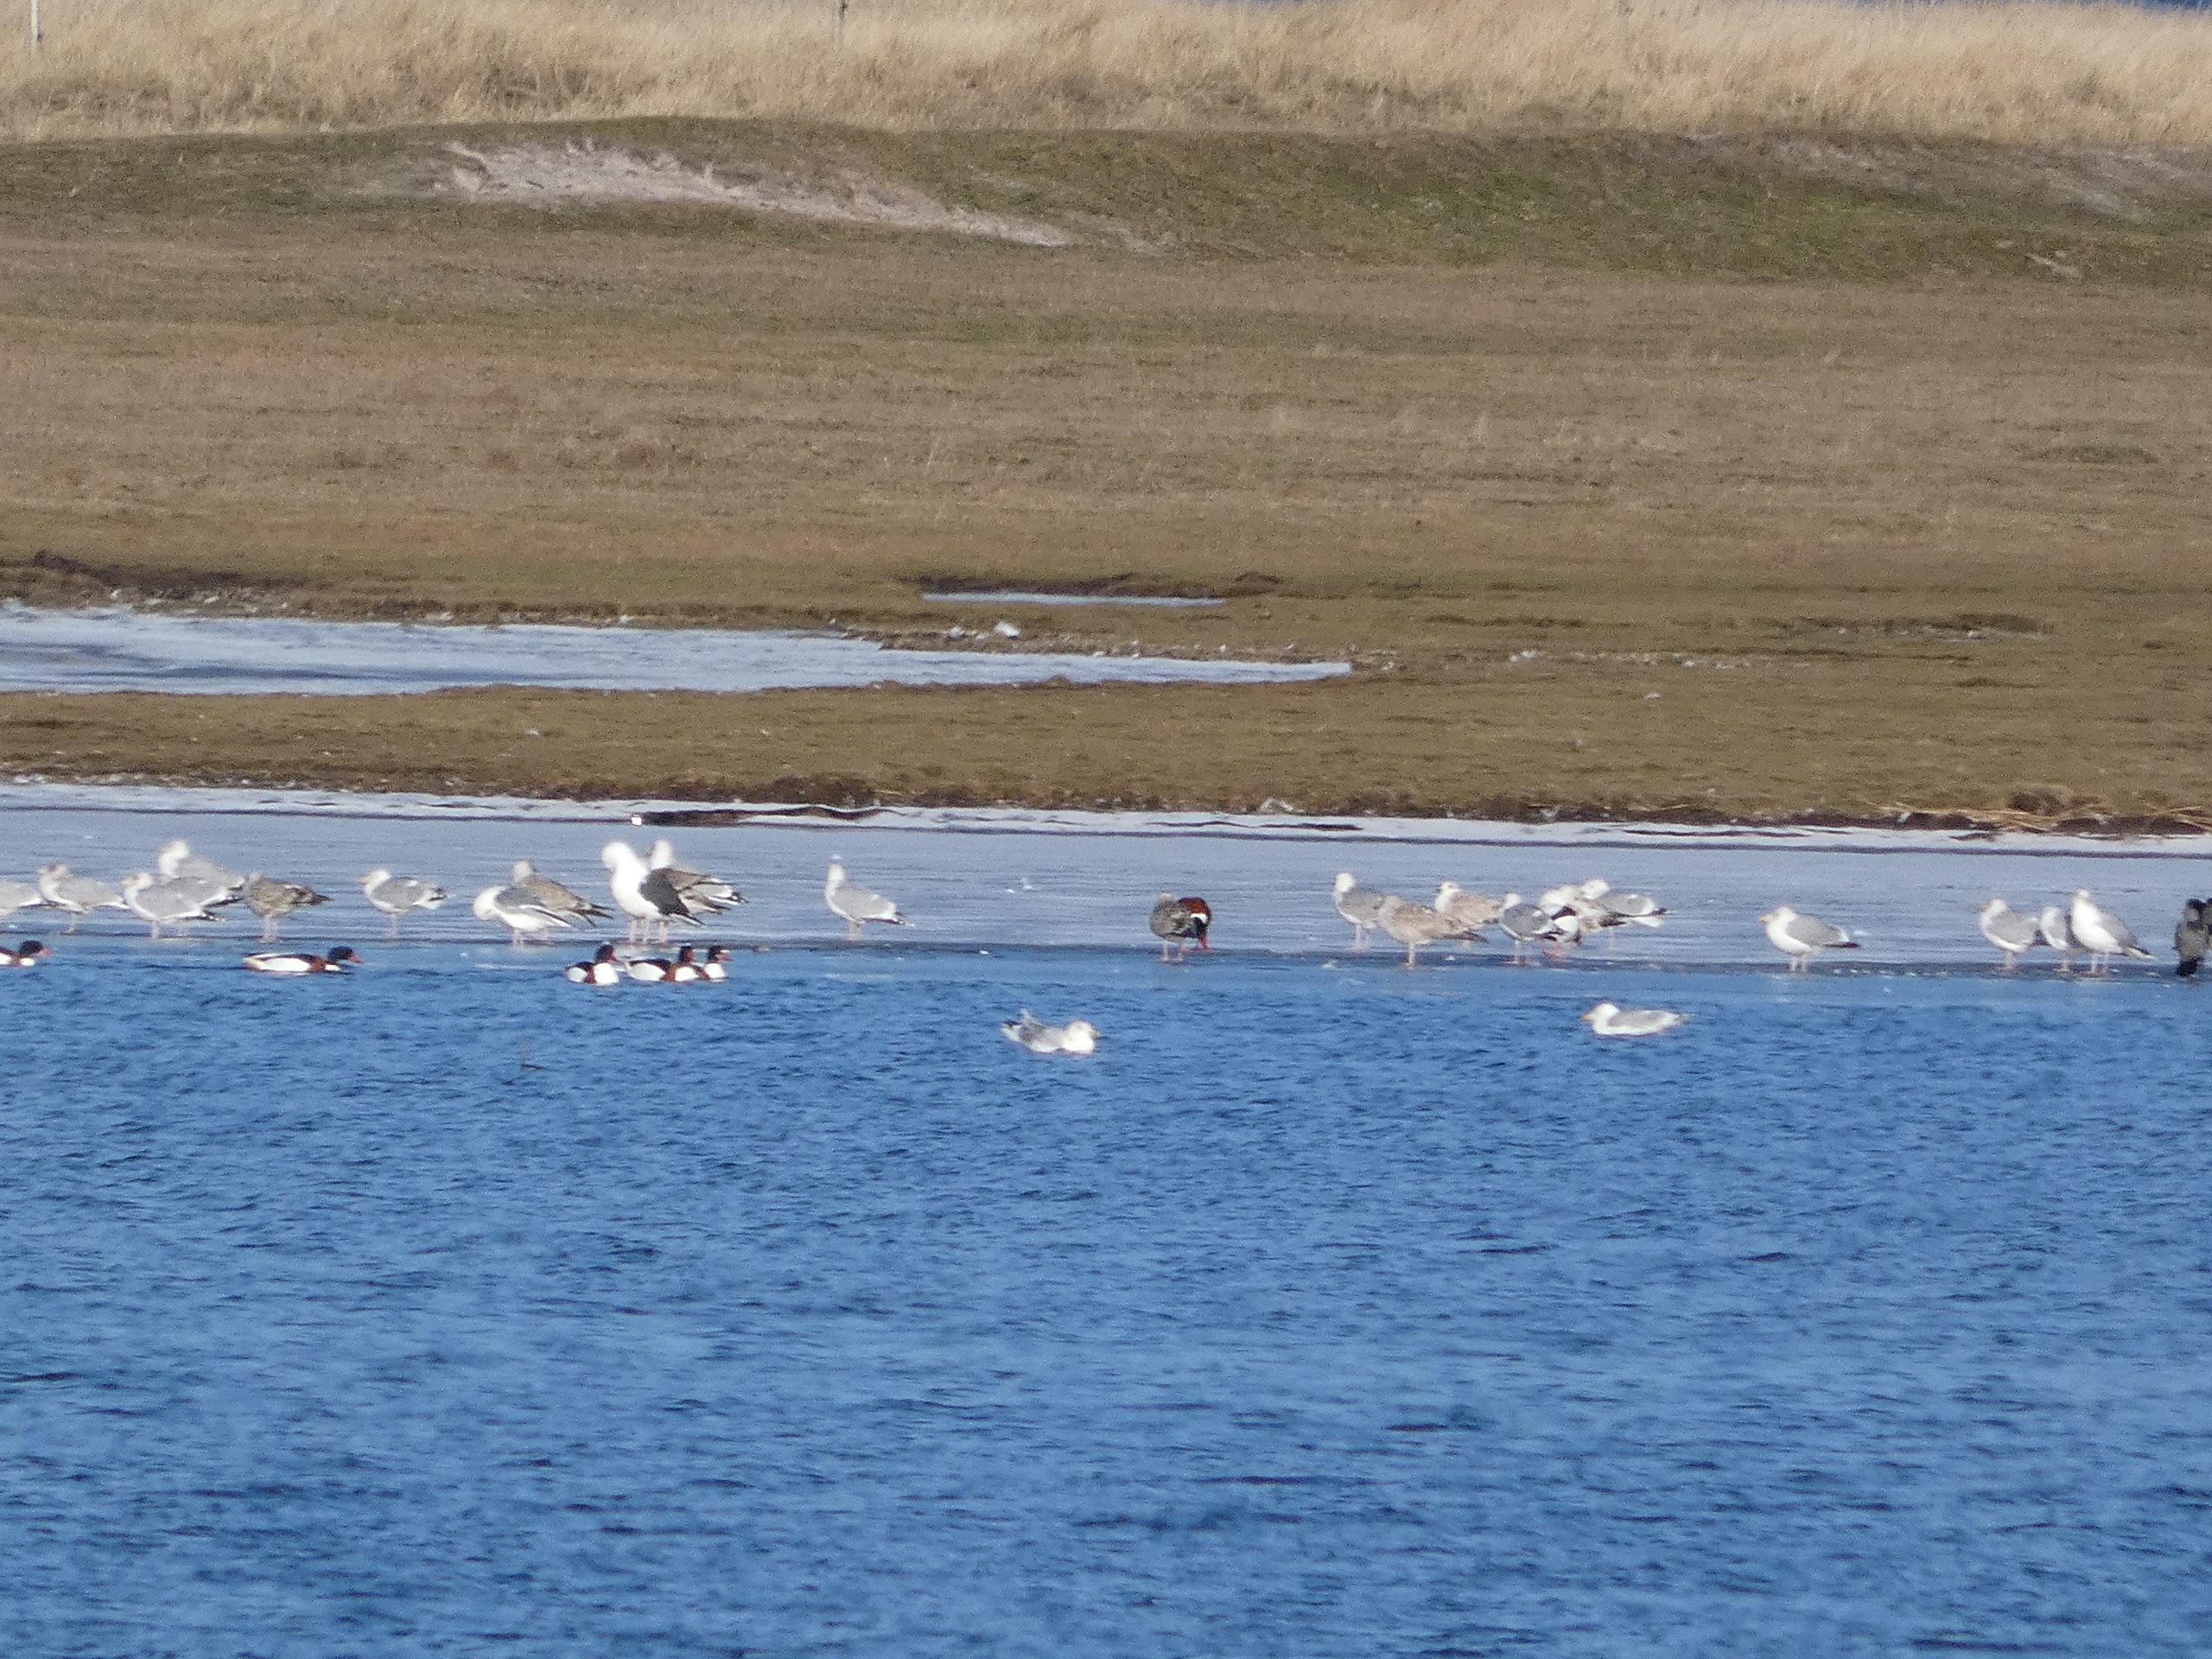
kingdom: Animalia
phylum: Chordata
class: Aves
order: Anseriformes
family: Anatidae
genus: Tadorna
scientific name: Tadorna tadorna
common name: Gravand
